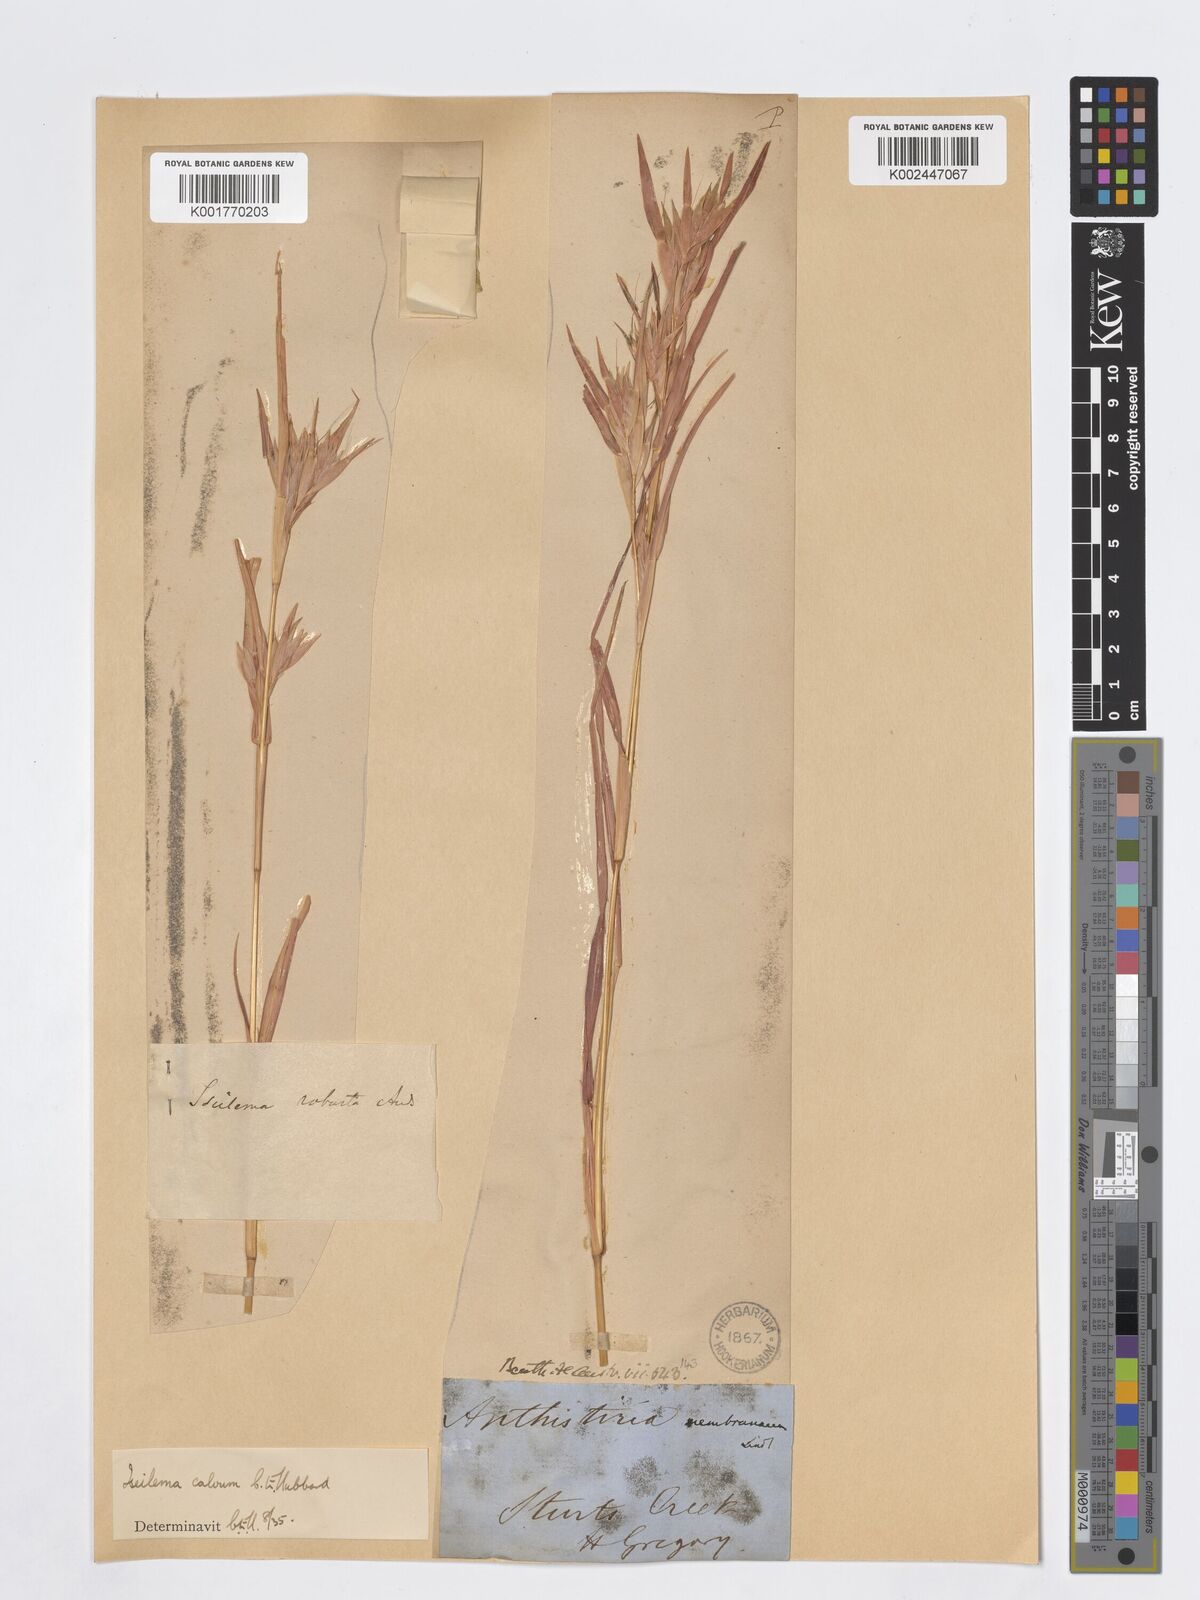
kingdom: Plantae
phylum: Tracheophyta
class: Liliopsida
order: Poales
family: Poaceae
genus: Iseilema
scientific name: Iseilema calvum
